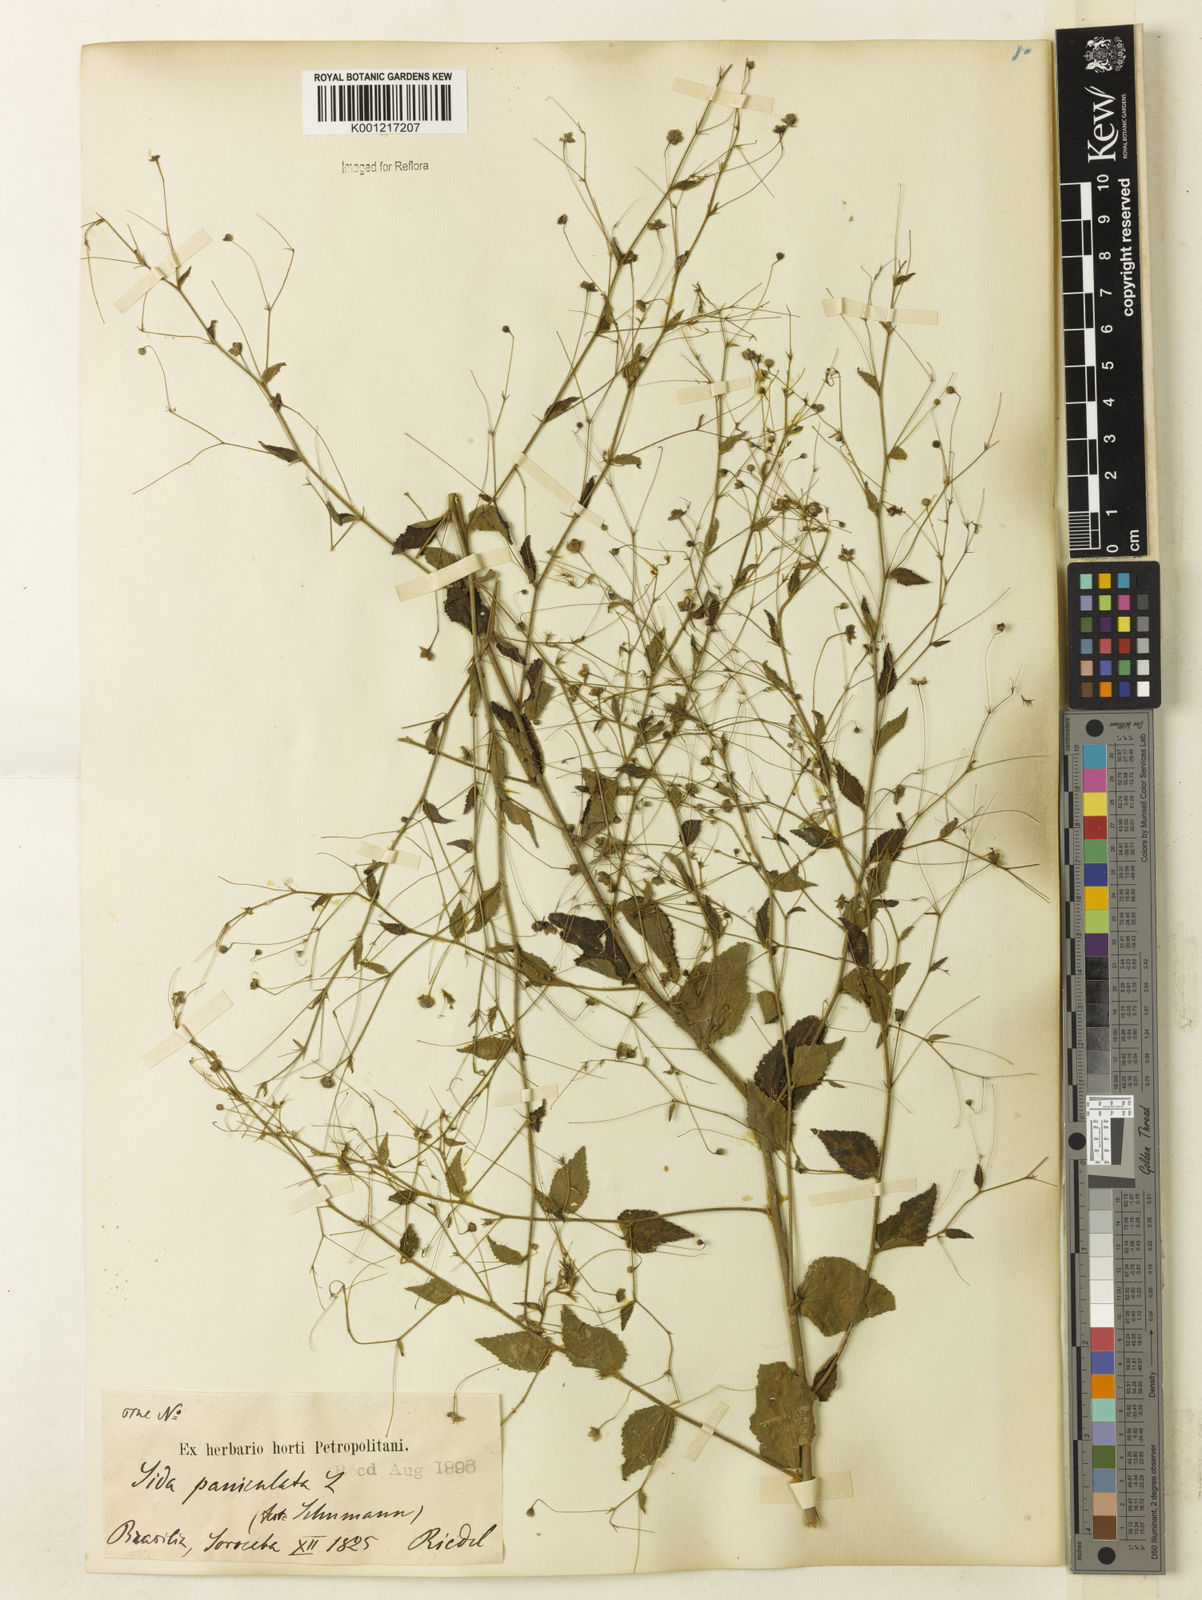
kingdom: Plantae
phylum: Tracheophyta
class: Magnoliopsida
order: Malvales
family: Malvaceae
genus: Sidastrum
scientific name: Sidastrum paniculatum
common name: Panicled sandmallow
